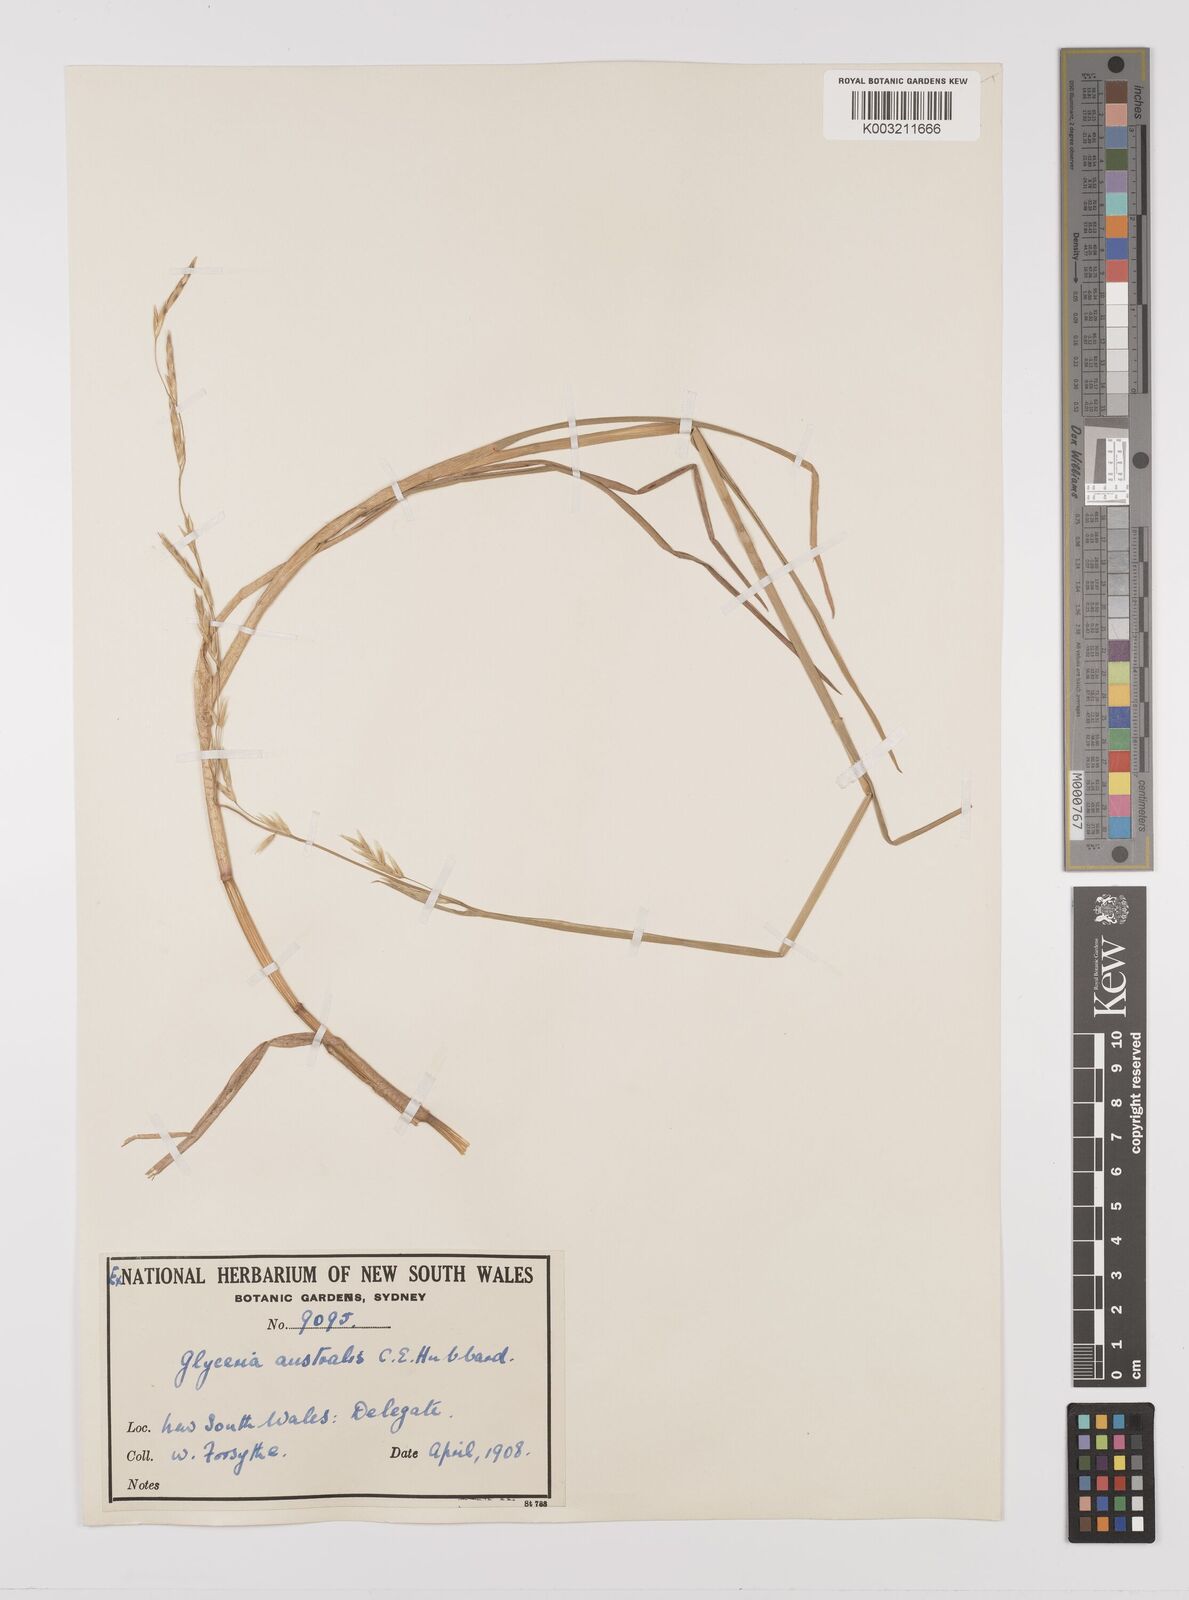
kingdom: Plantae
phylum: Tracheophyta
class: Liliopsida
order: Poales
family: Poaceae
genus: Glyceria
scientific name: Glyceria australis
